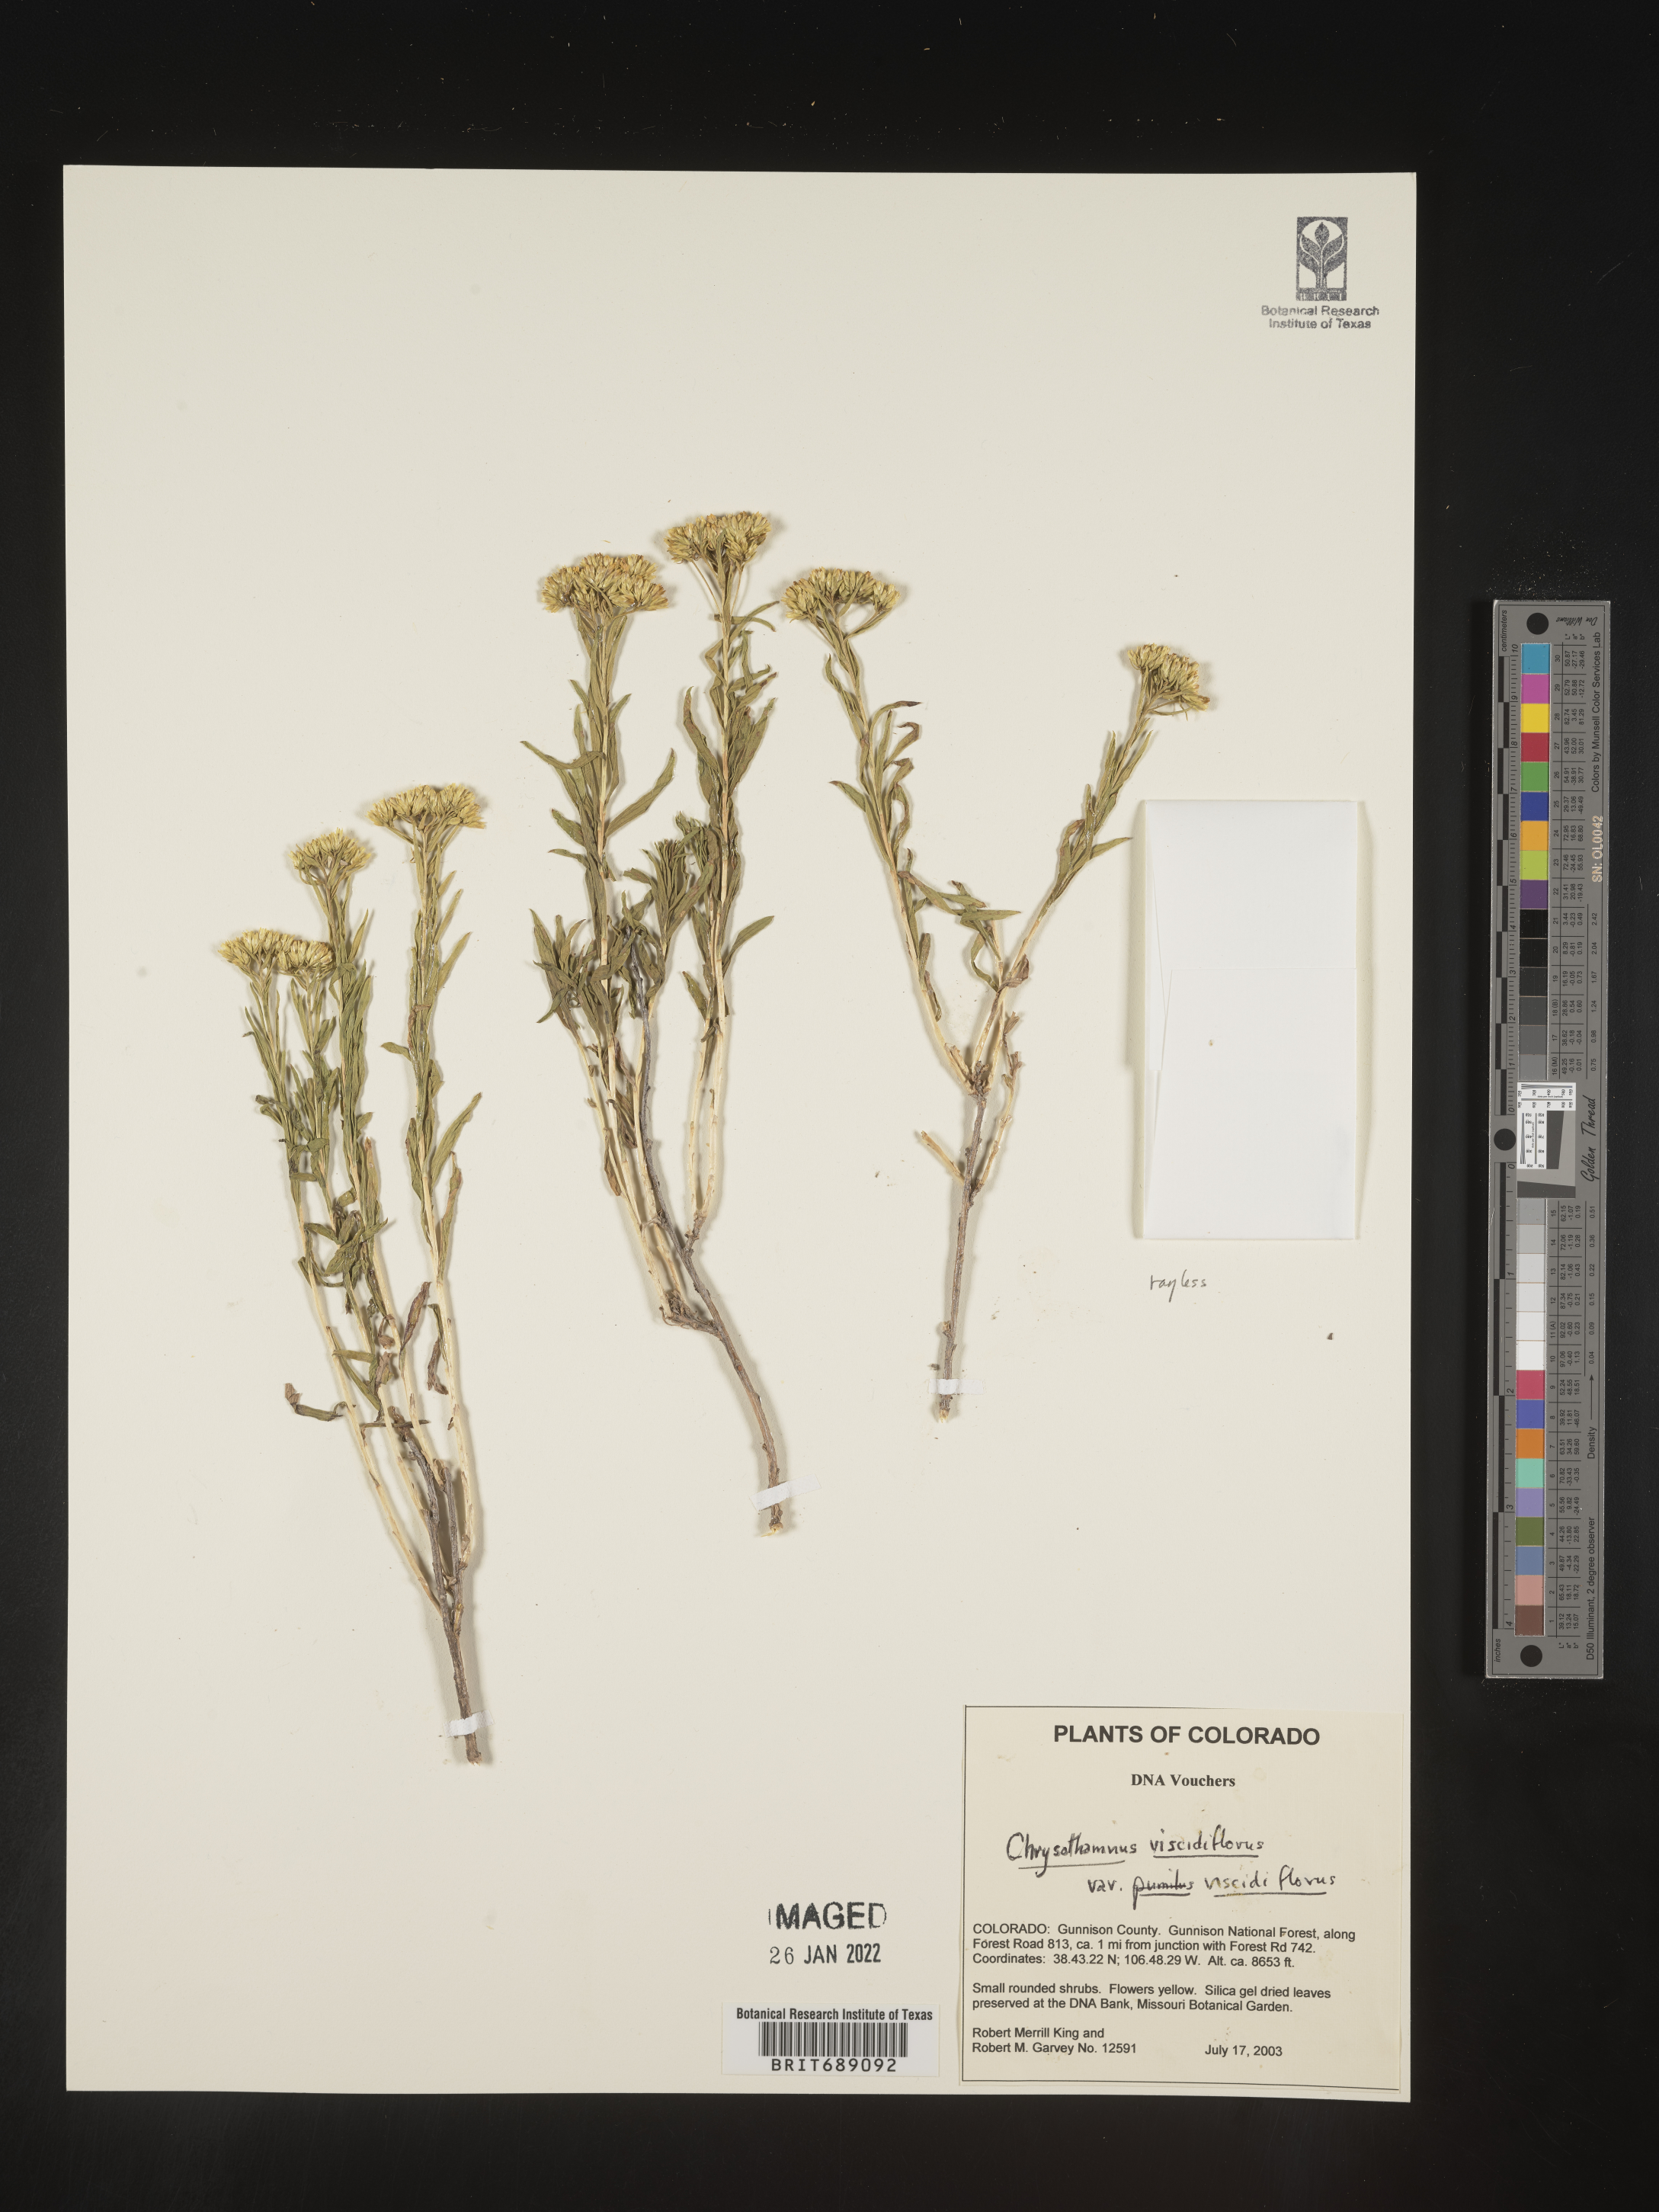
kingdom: Plantae
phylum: Tracheophyta
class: Magnoliopsida
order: Asterales
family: Asteraceae
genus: Chrysothamnus
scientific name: Chrysothamnus viscidiflorus
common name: Yellow rabbitbrush
